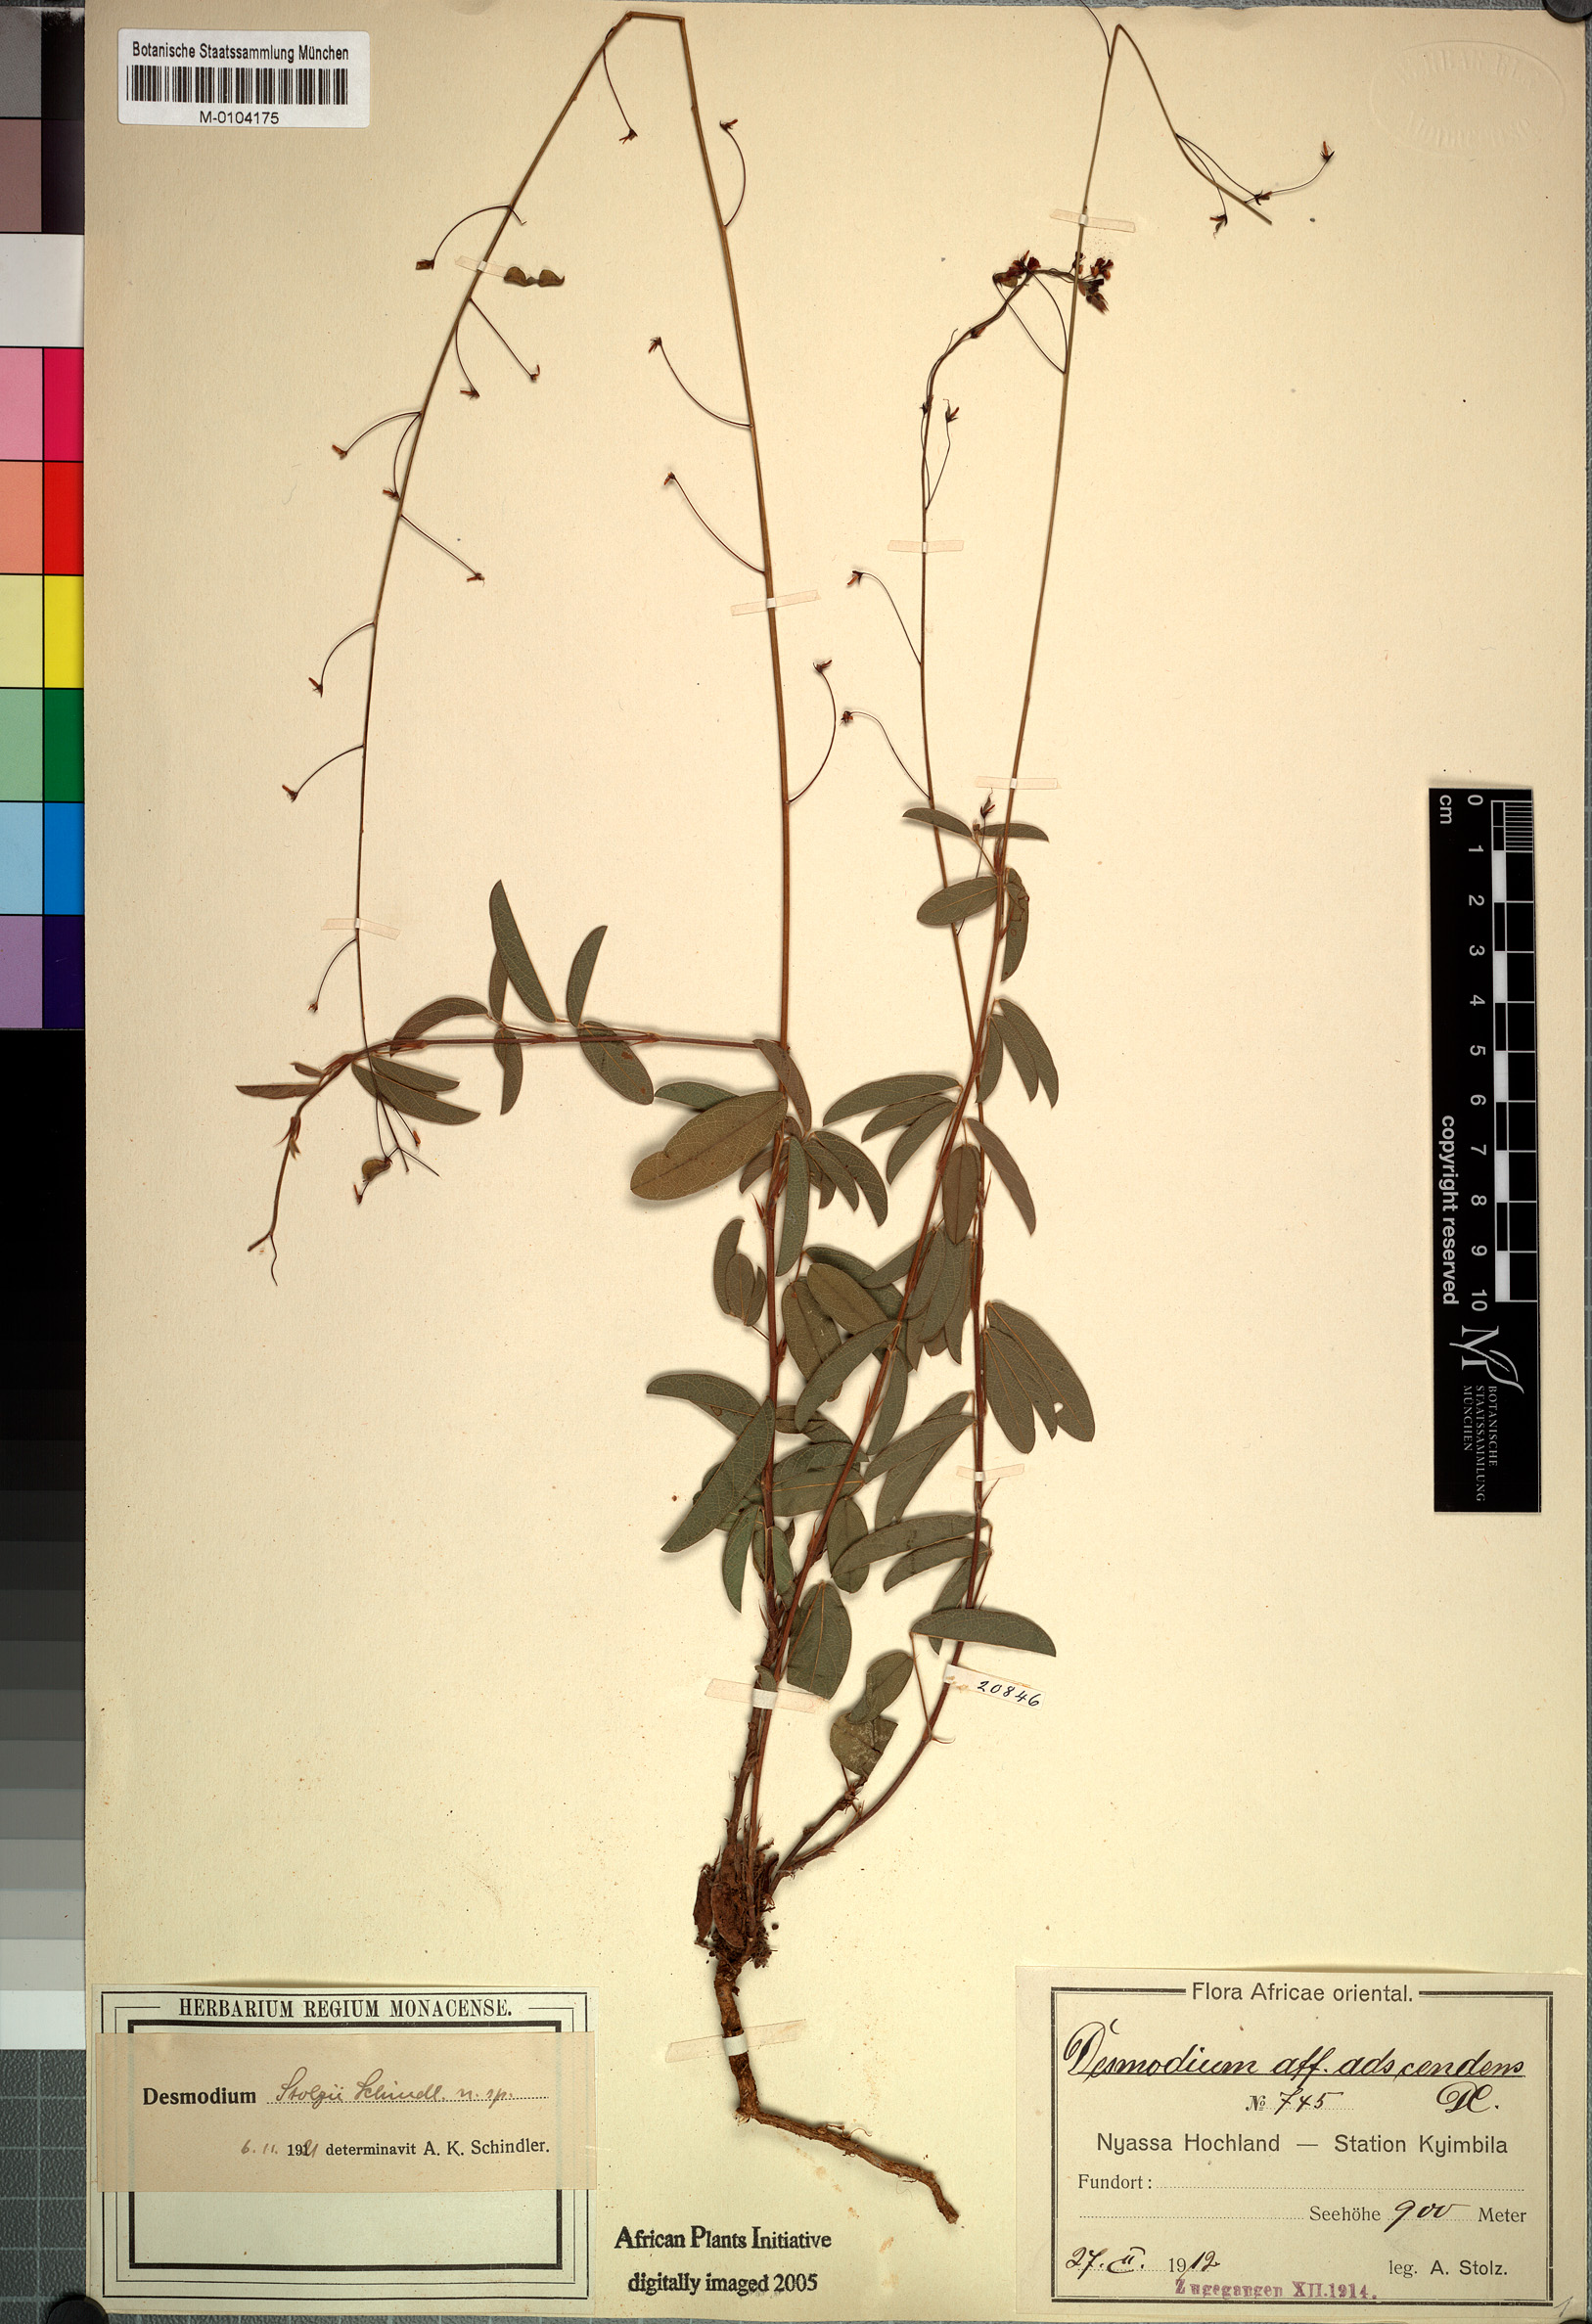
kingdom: Plantae
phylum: Tracheophyta
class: Magnoliopsida
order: Fabales
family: Fabaceae
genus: Grona
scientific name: Grona stolzii
